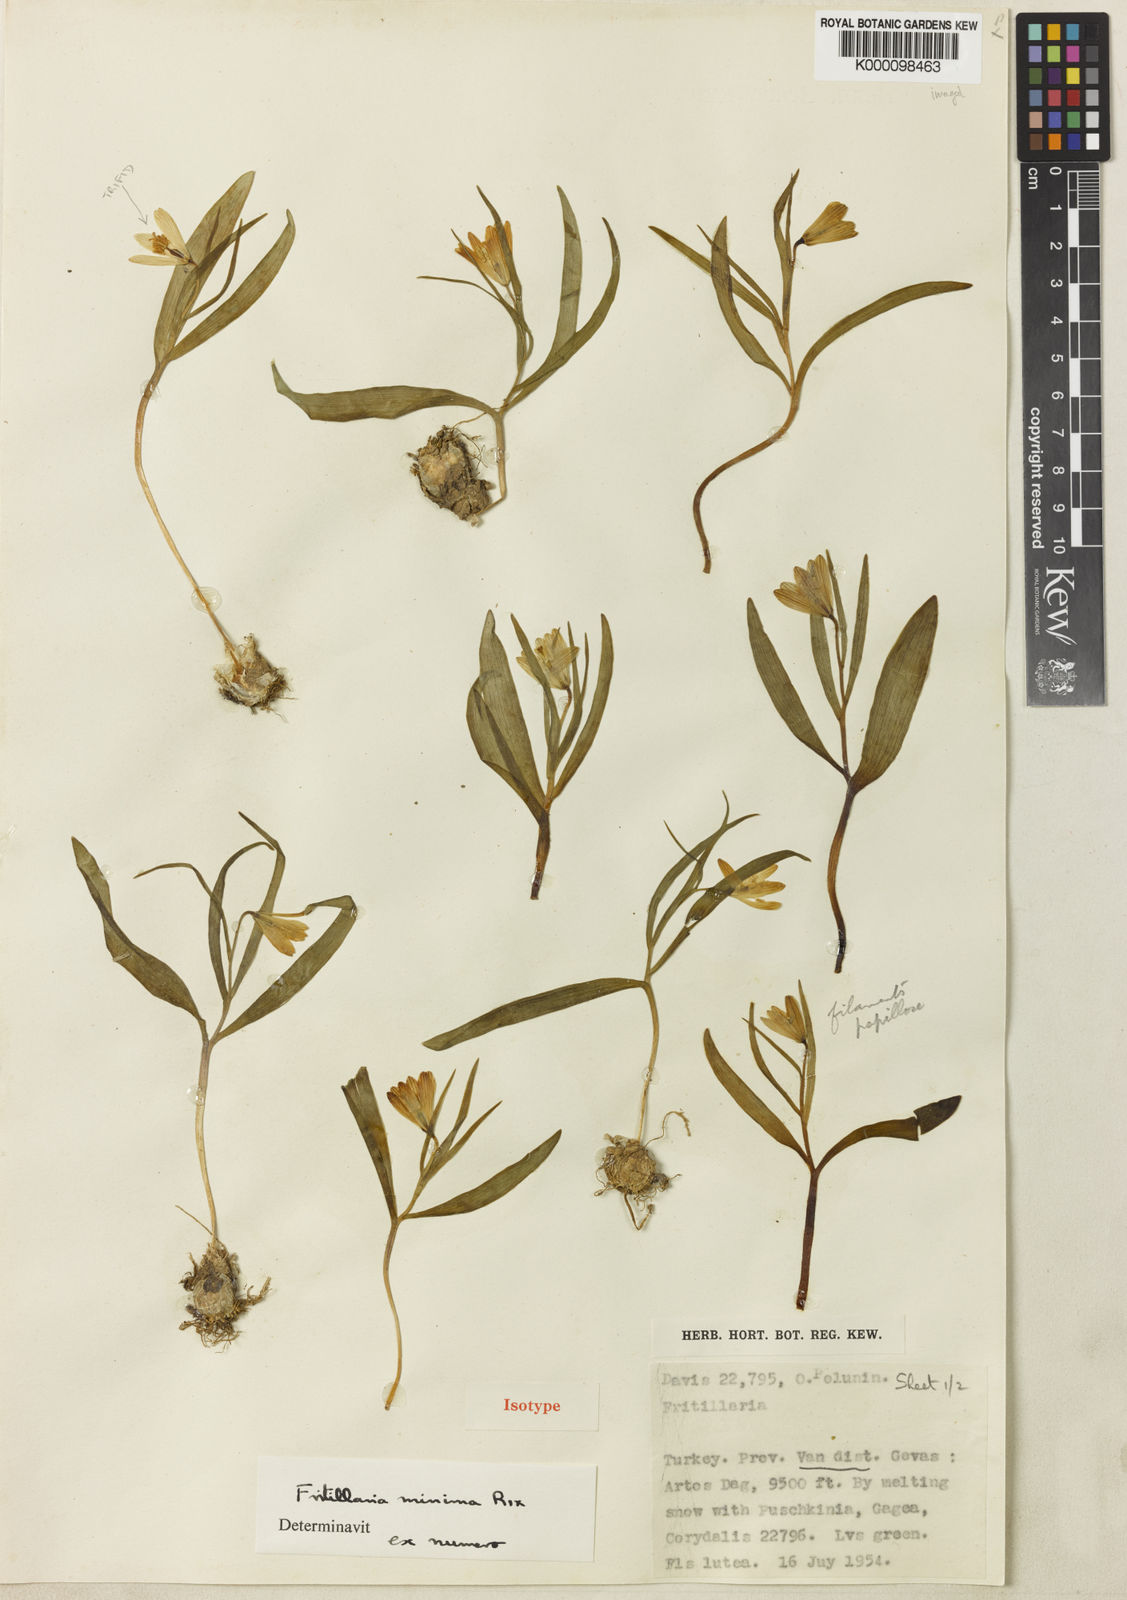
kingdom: Plantae
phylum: Tracheophyta
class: Liliopsida
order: Liliales
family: Liliaceae
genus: Fritillaria
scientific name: Fritillaria minima
